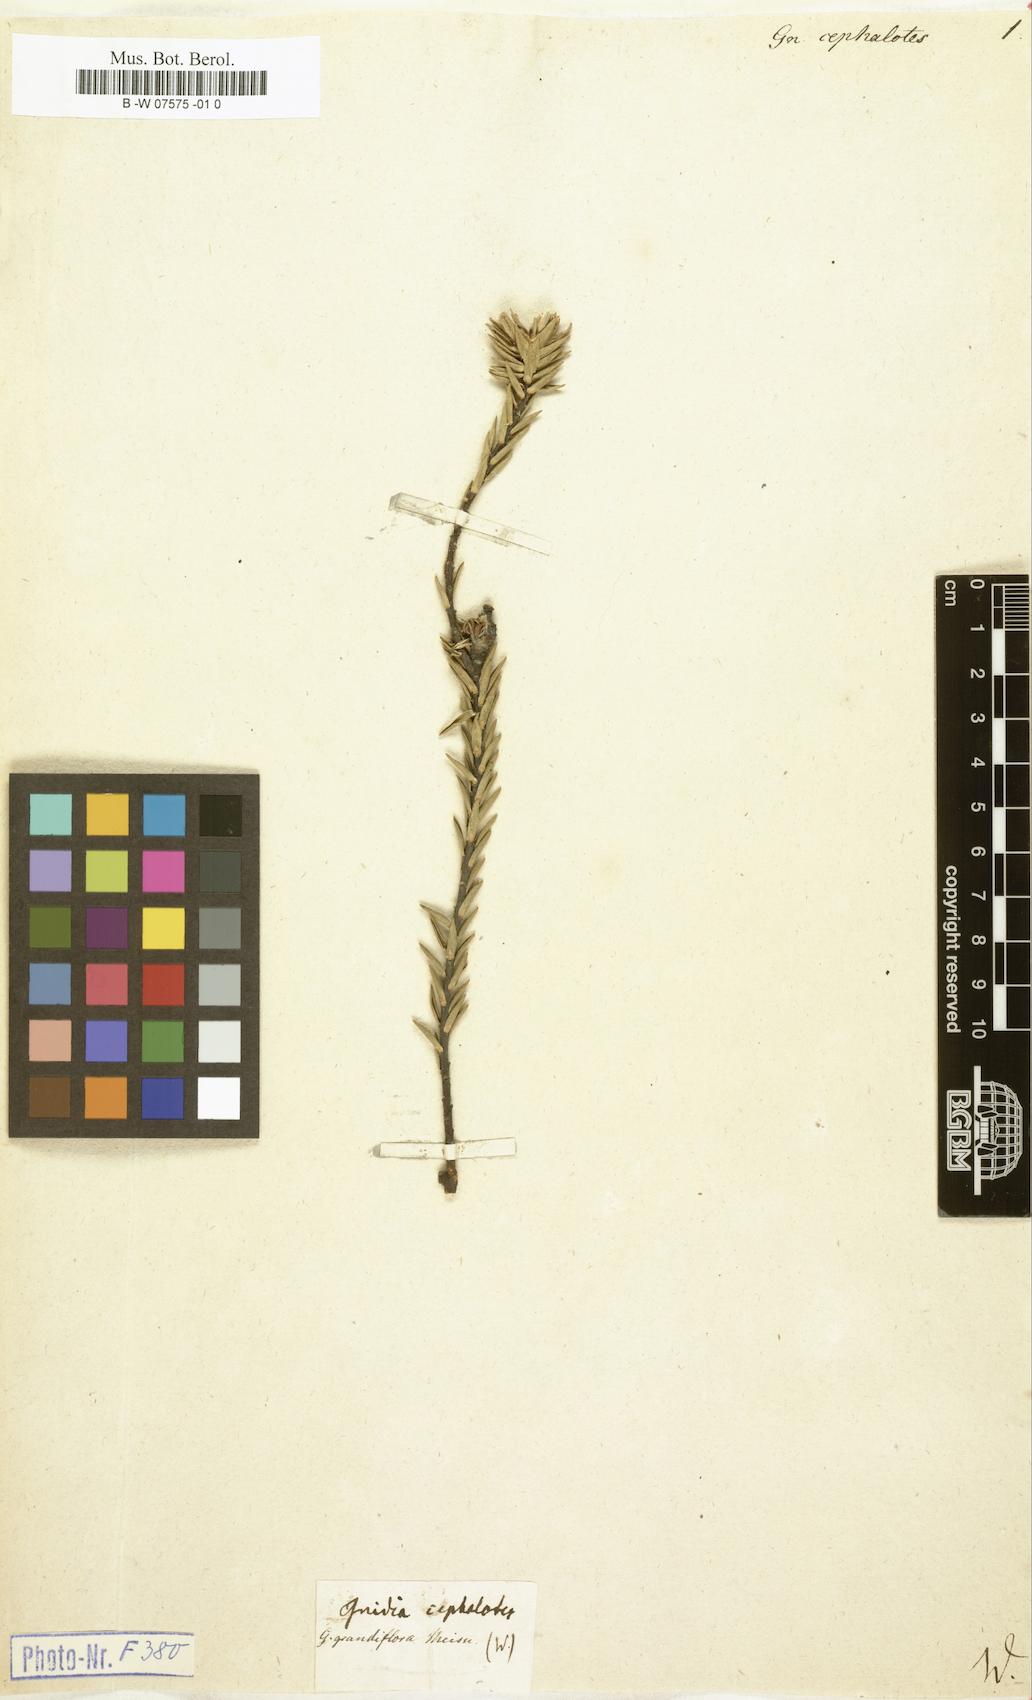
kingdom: Plantae
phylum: Tracheophyta
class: Magnoliopsida
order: Malvales
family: Thymelaeaceae
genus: Lachnaea
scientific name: Lachnaea grandiflora
